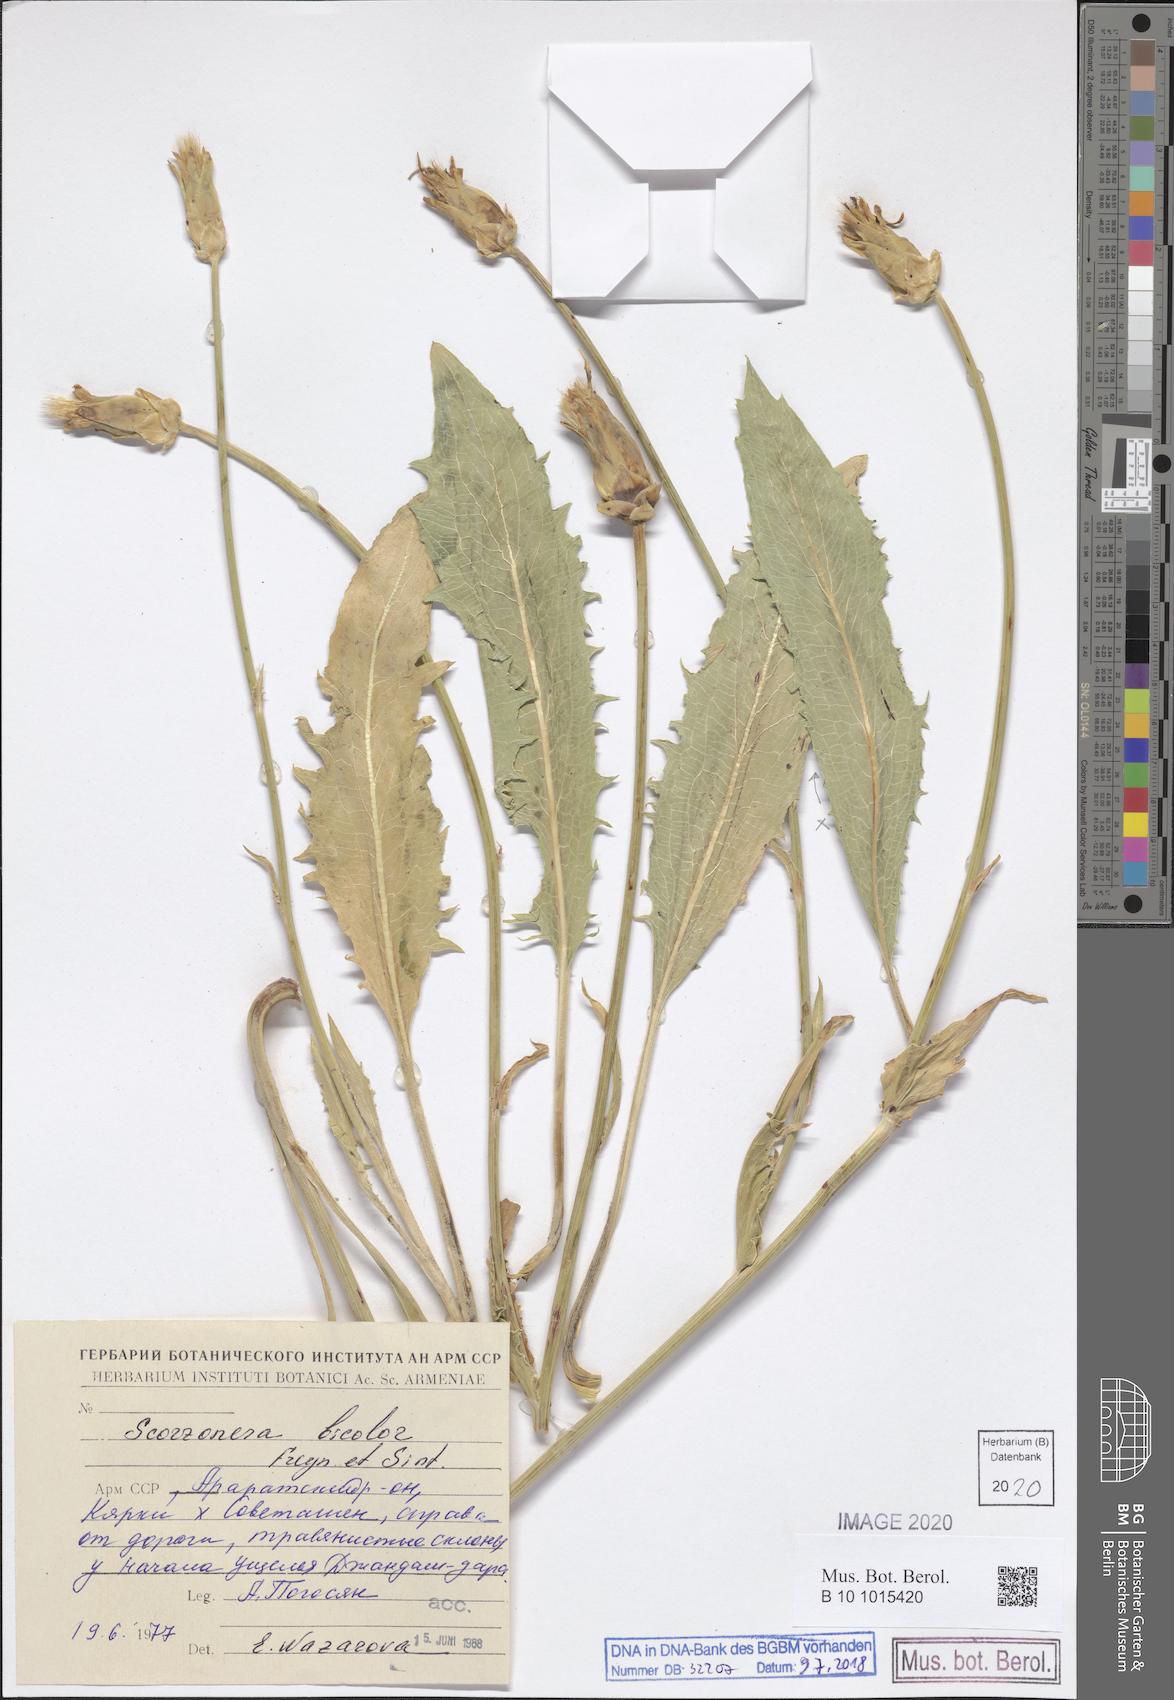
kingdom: Plantae
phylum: Tracheophyta
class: Magnoliopsida
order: Asterales
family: Asteraceae
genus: Aslia
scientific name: Aslia bicolor
